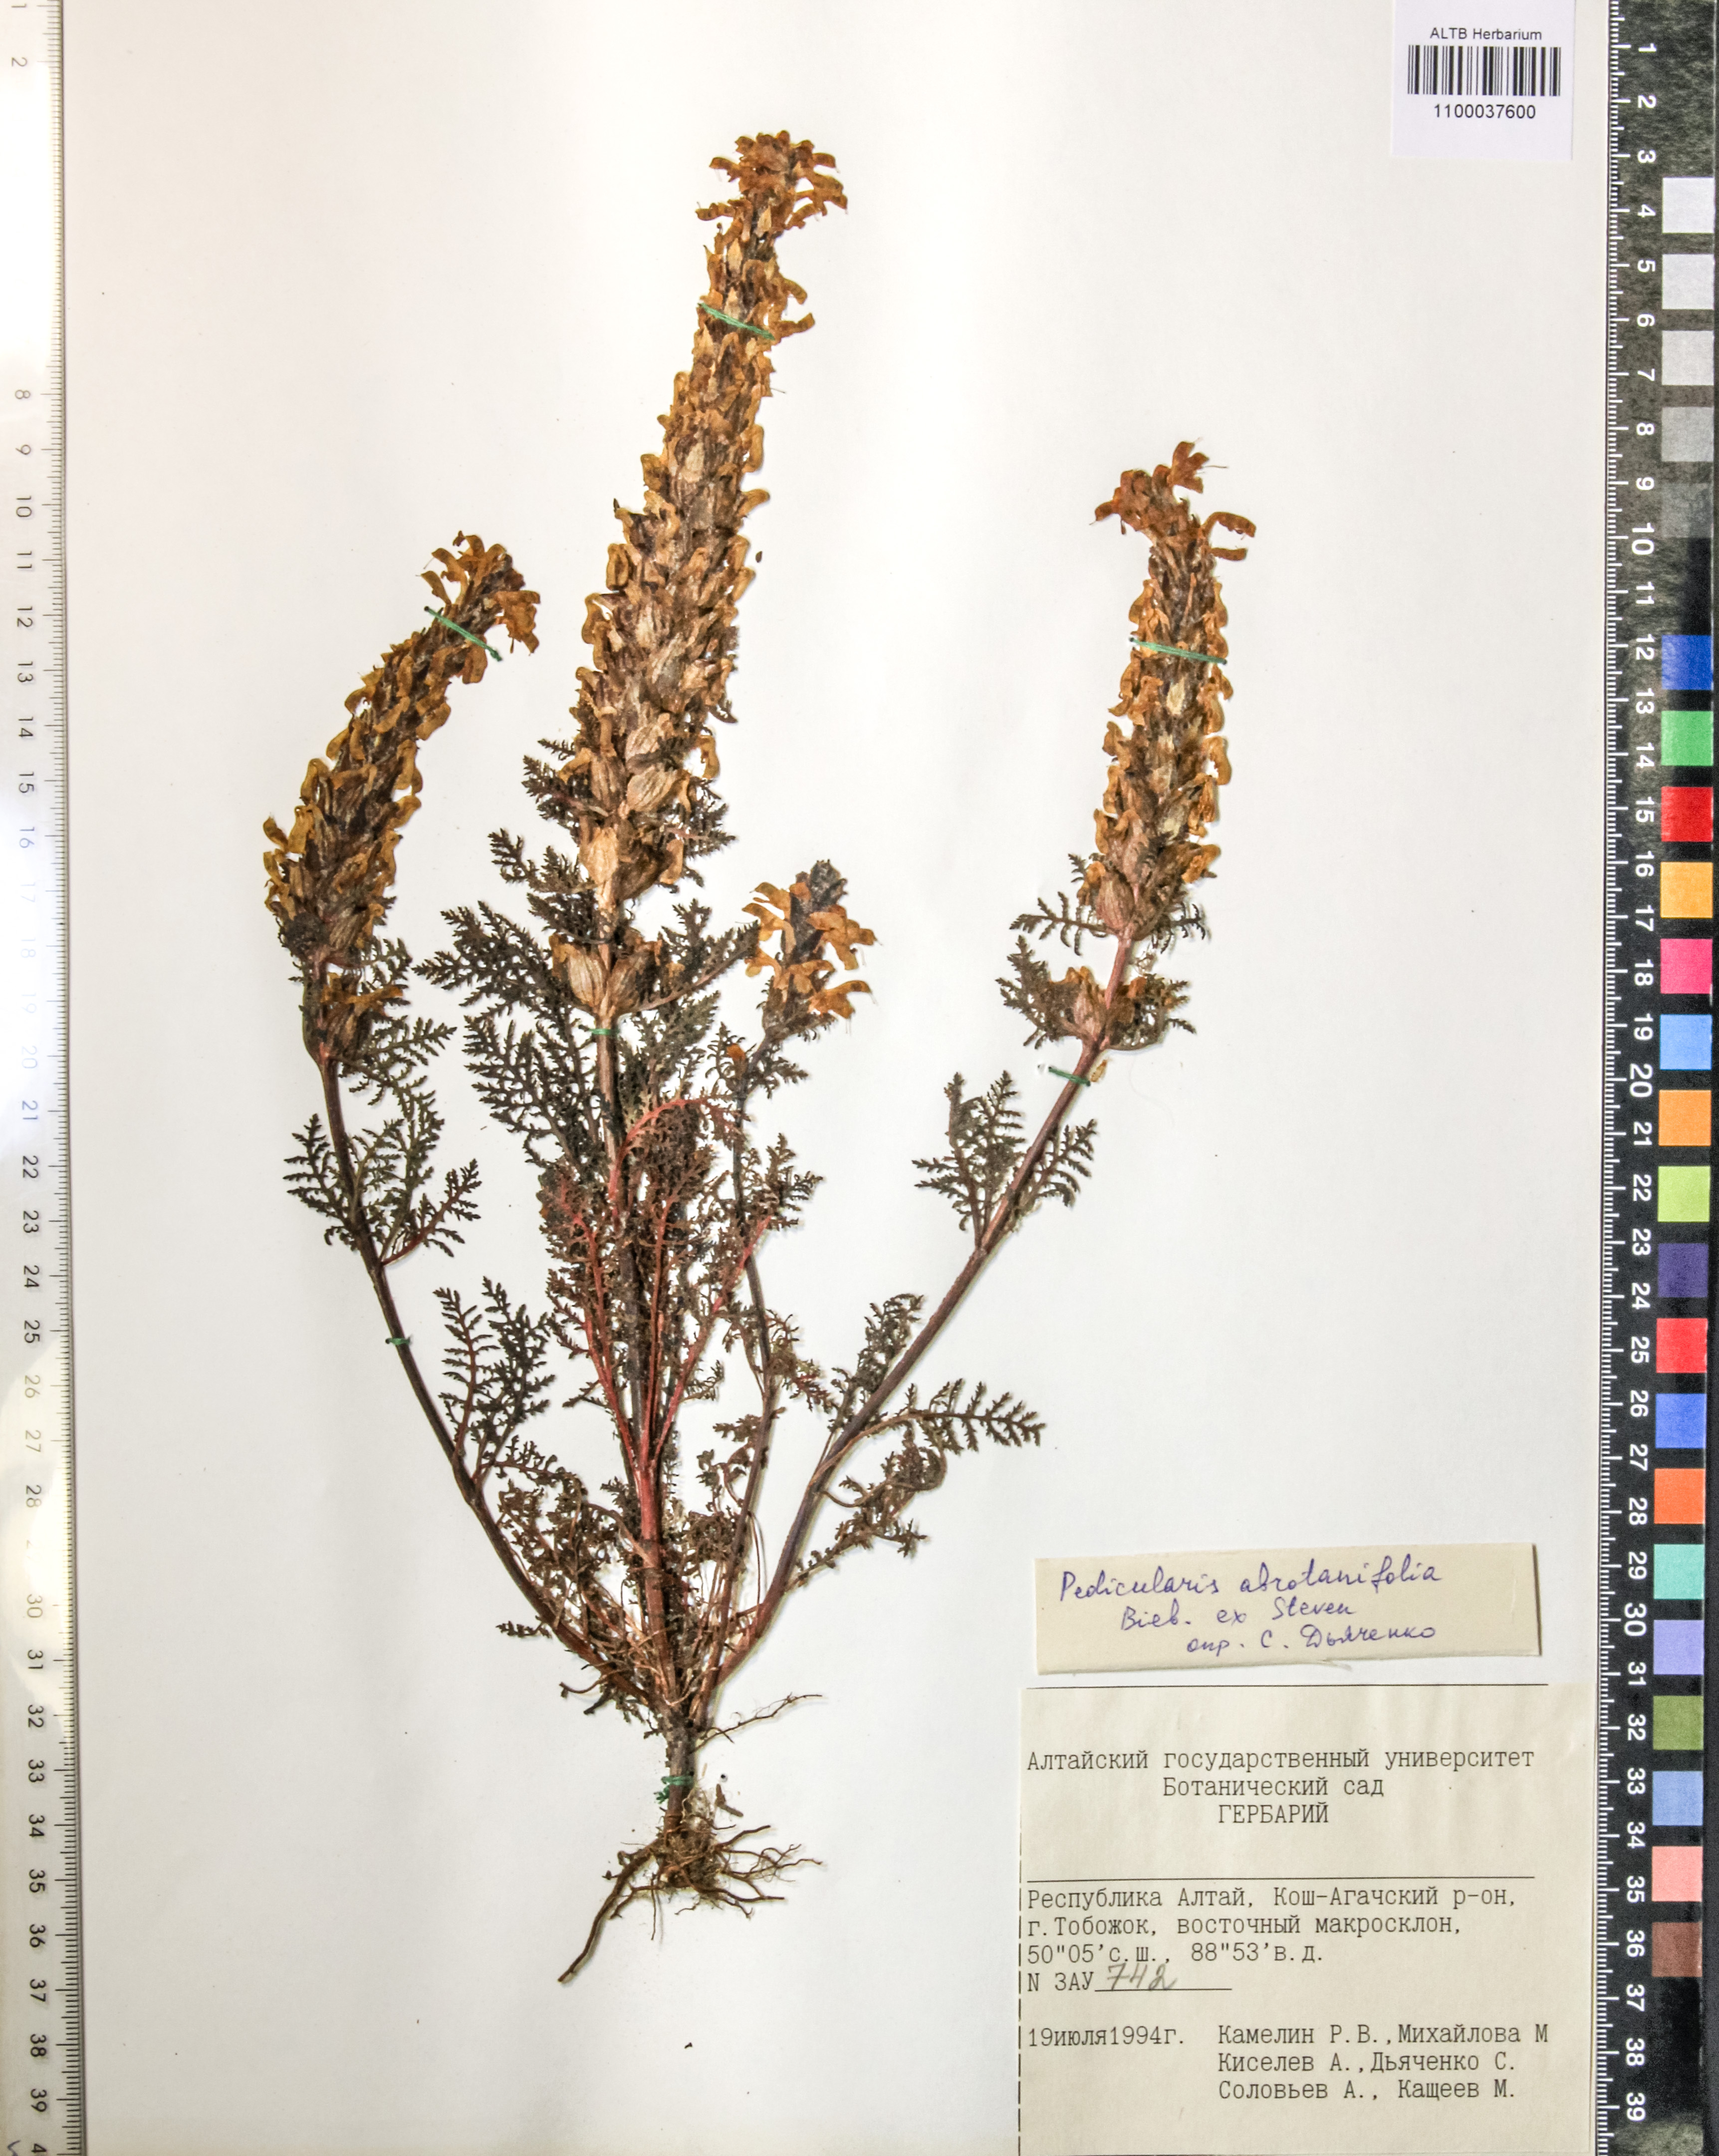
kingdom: Plantae
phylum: Tracheophyta
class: Magnoliopsida
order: Lamiales
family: Orobanchaceae
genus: Pedicularis
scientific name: Pedicularis abrotanifolia
